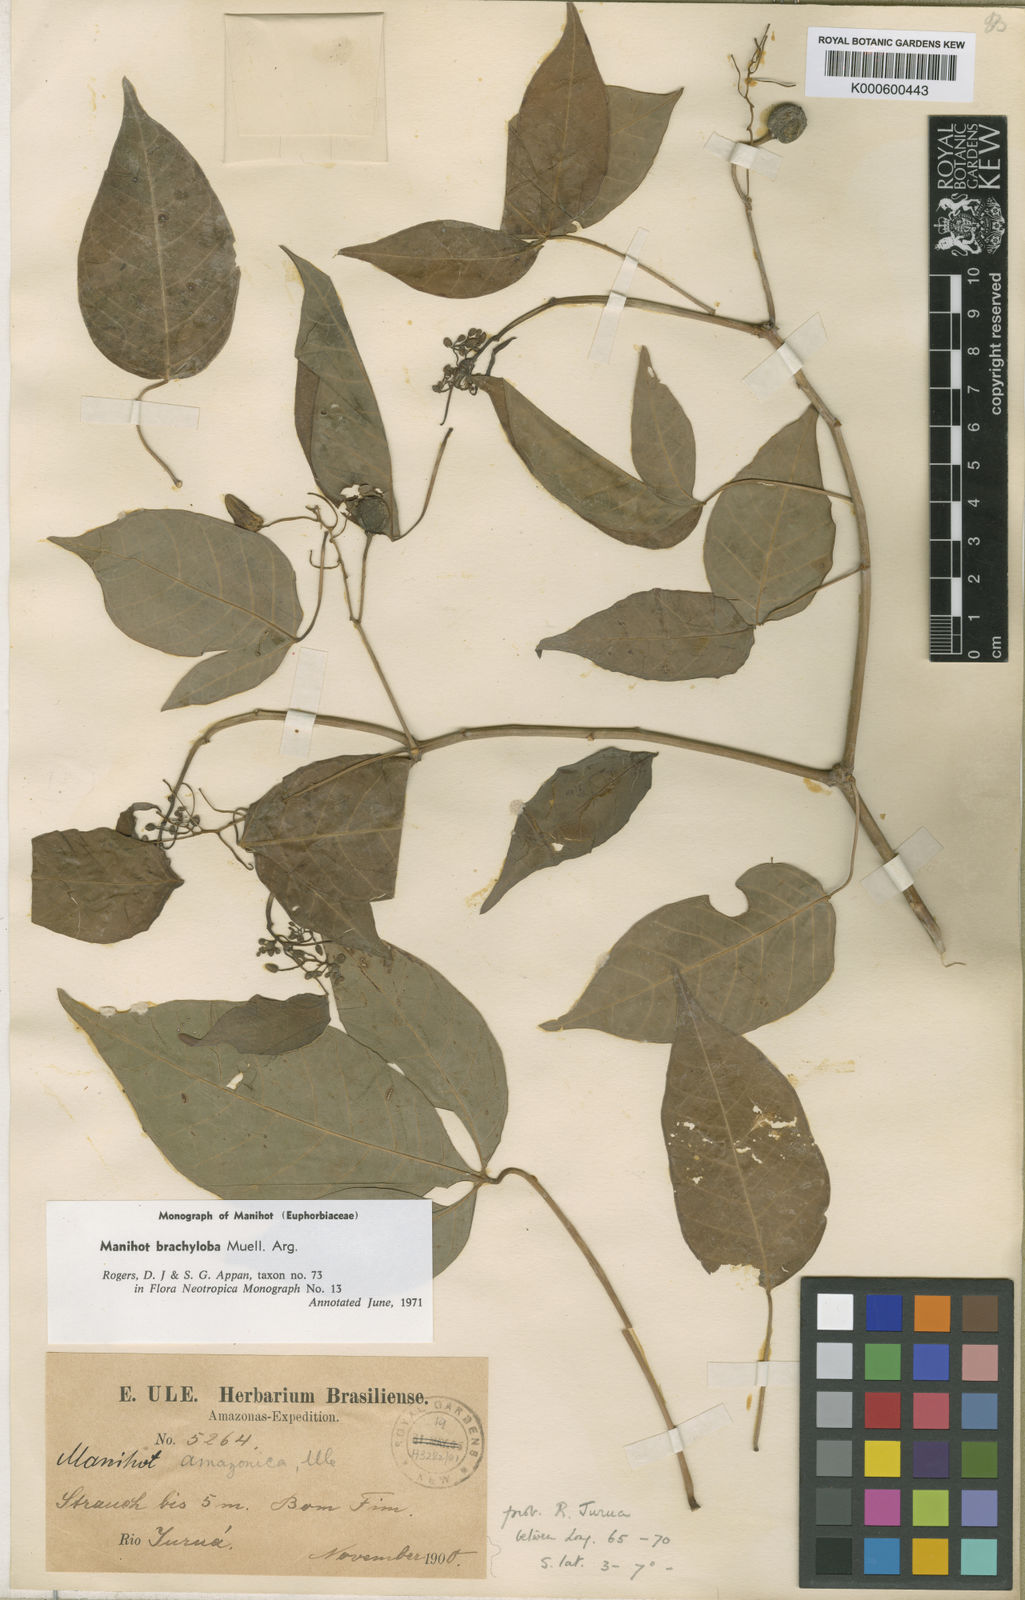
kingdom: Plantae
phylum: Tracheophyta
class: Magnoliopsida
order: Malpighiales
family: Euphorbiaceae
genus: Manihot
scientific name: Manihot
